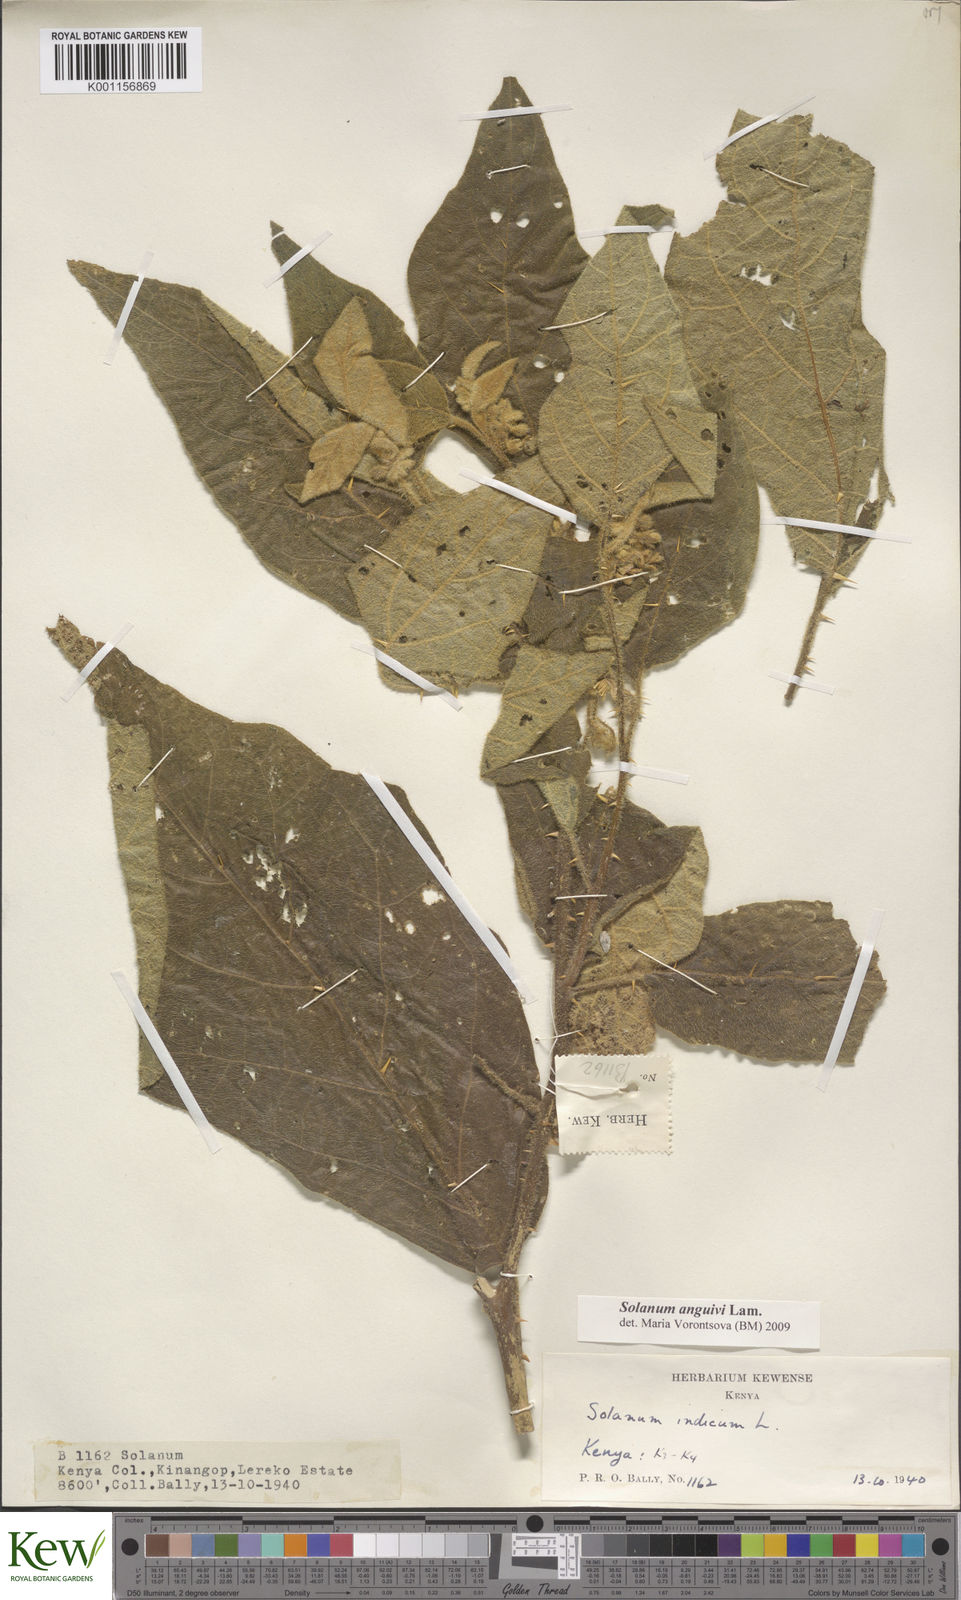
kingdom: Plantae
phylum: Tracheophyta
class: Magnoliopsida
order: Solanales
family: Solanaceae
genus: Solanum
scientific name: Solanum anguivi
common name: Forest bitterberry
